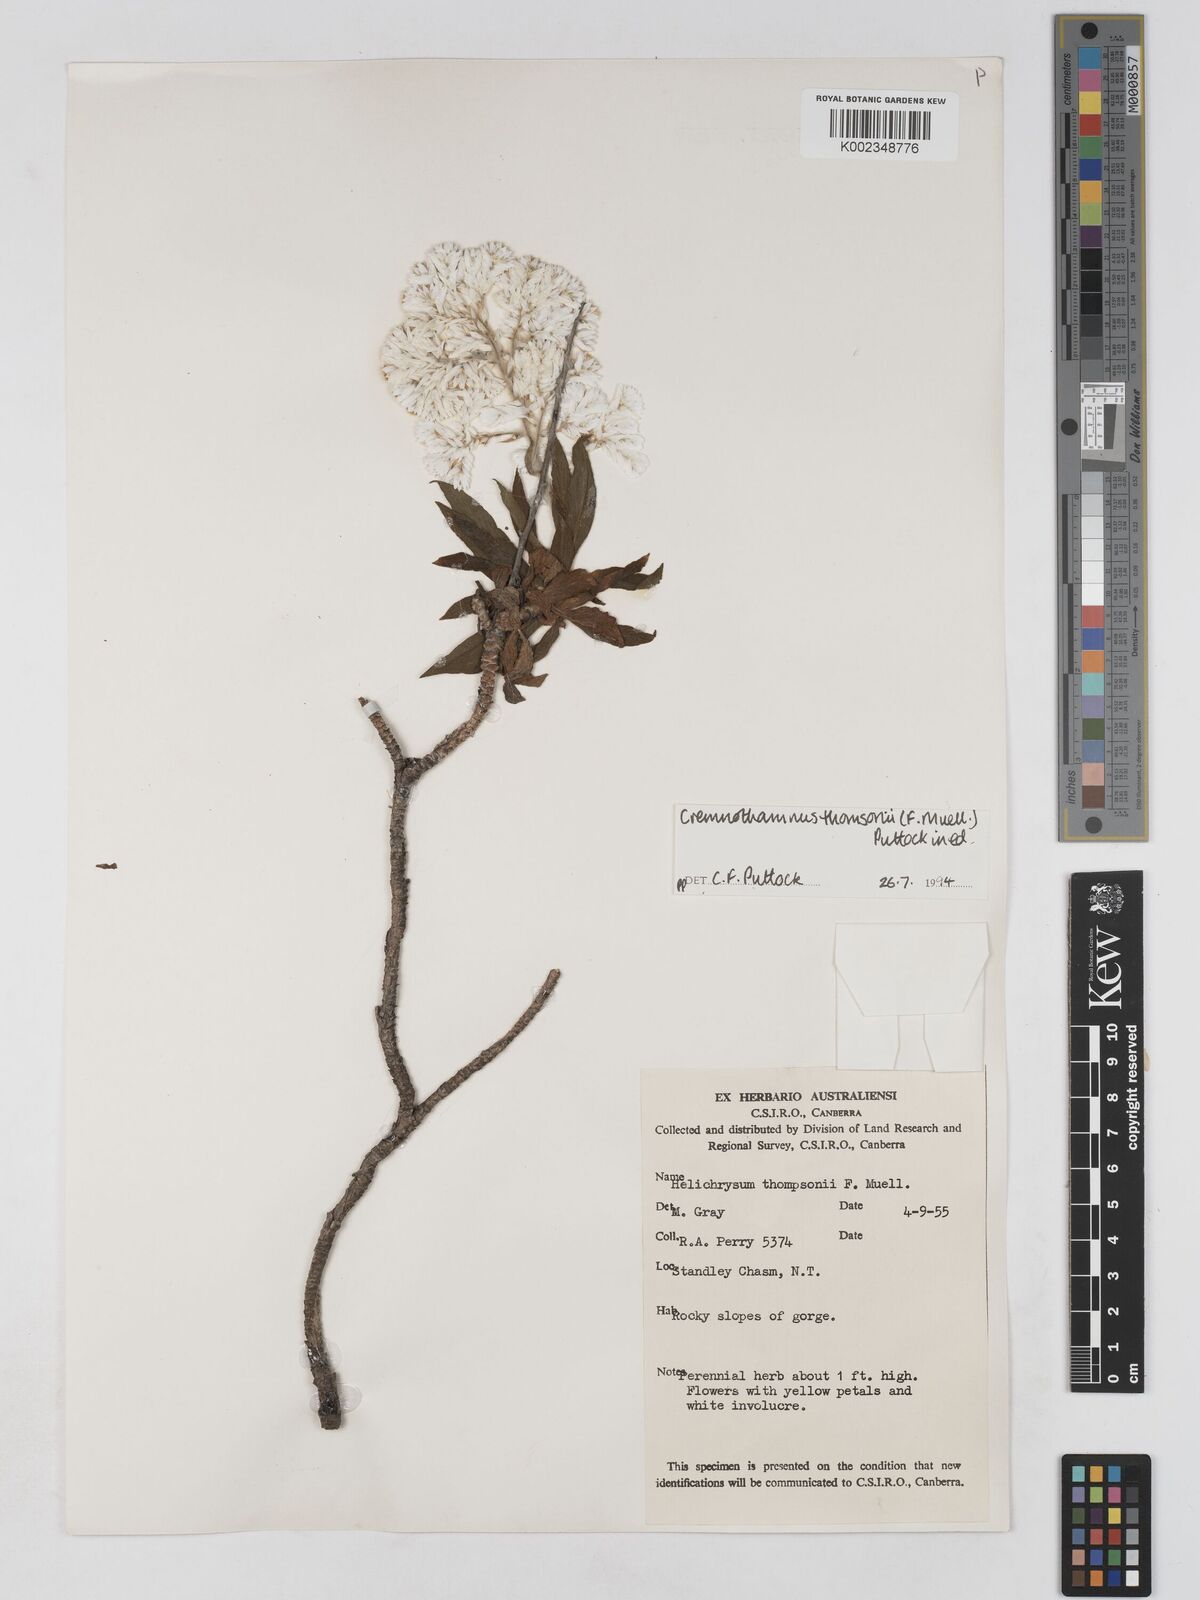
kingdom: Plantae
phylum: Tracheophyta
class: Magnoliopsida
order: Asterales
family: Asteraceae
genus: Cremnothamnus
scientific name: Cremnothamnus thomsonii
